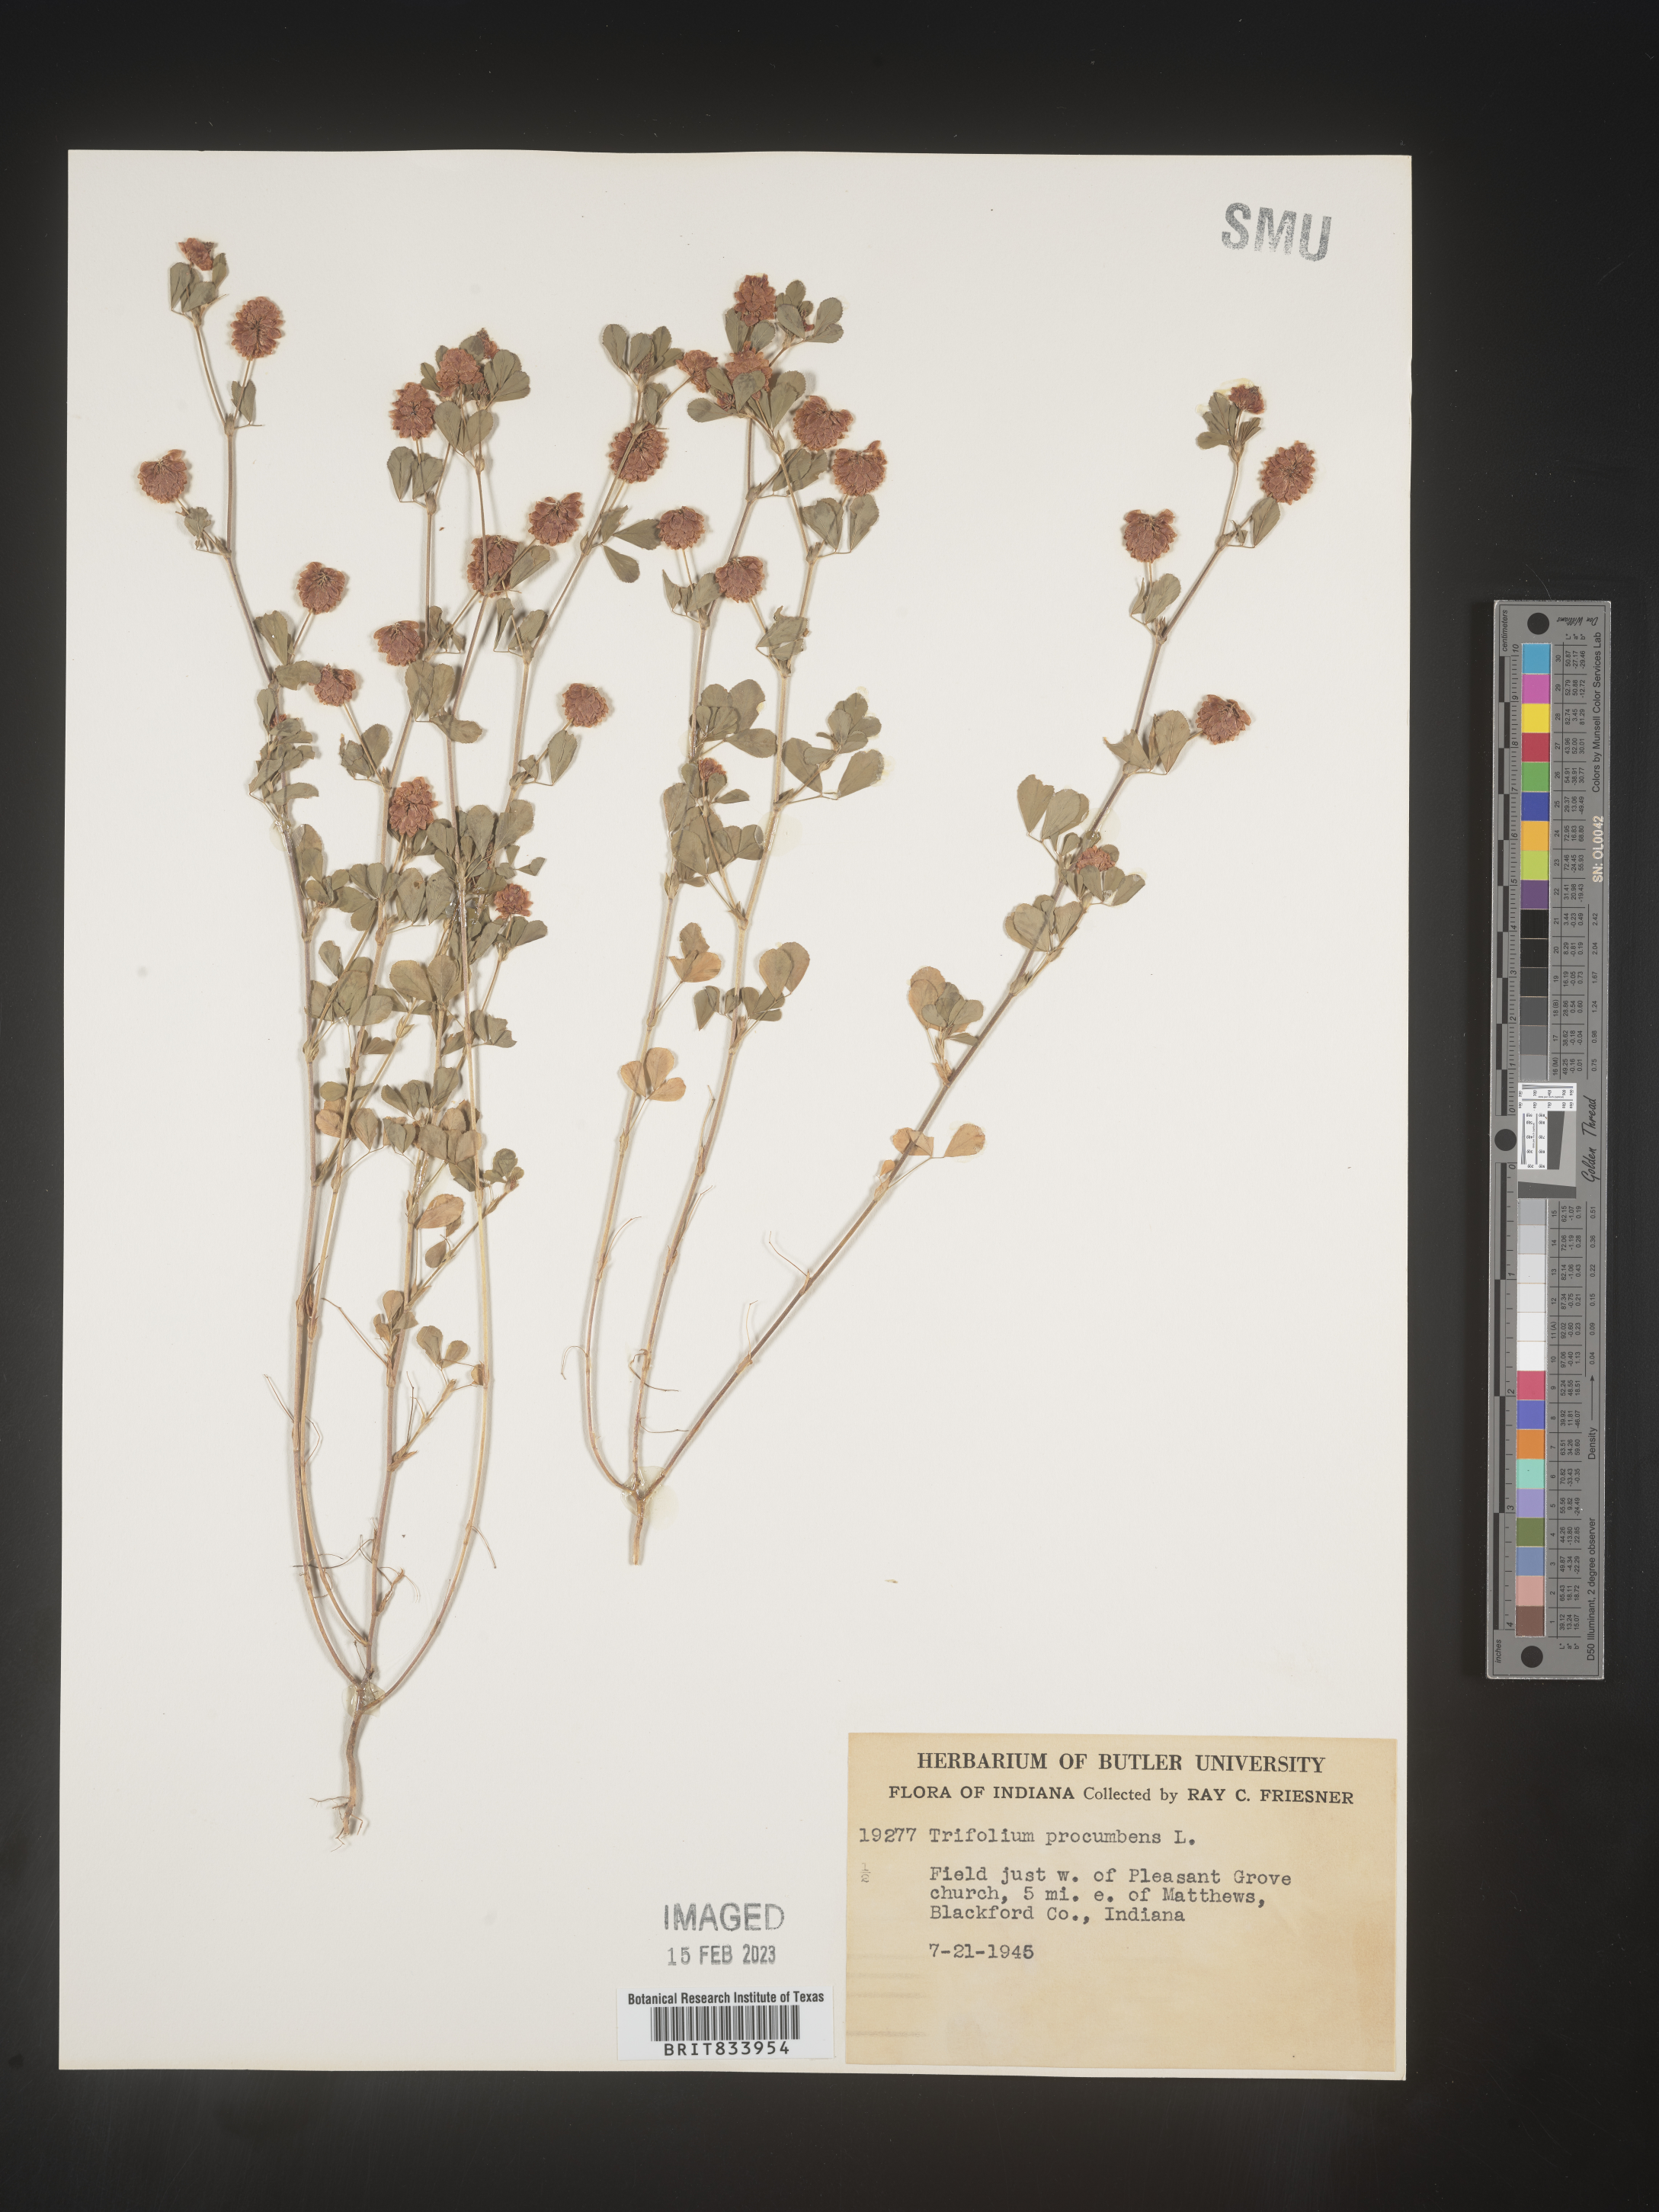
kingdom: Plantae
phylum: Tracheophyta
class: Magnoliopsida
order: Fabales
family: Fabaceae
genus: Trifolium
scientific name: Trifolium campestre
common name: Field clover
